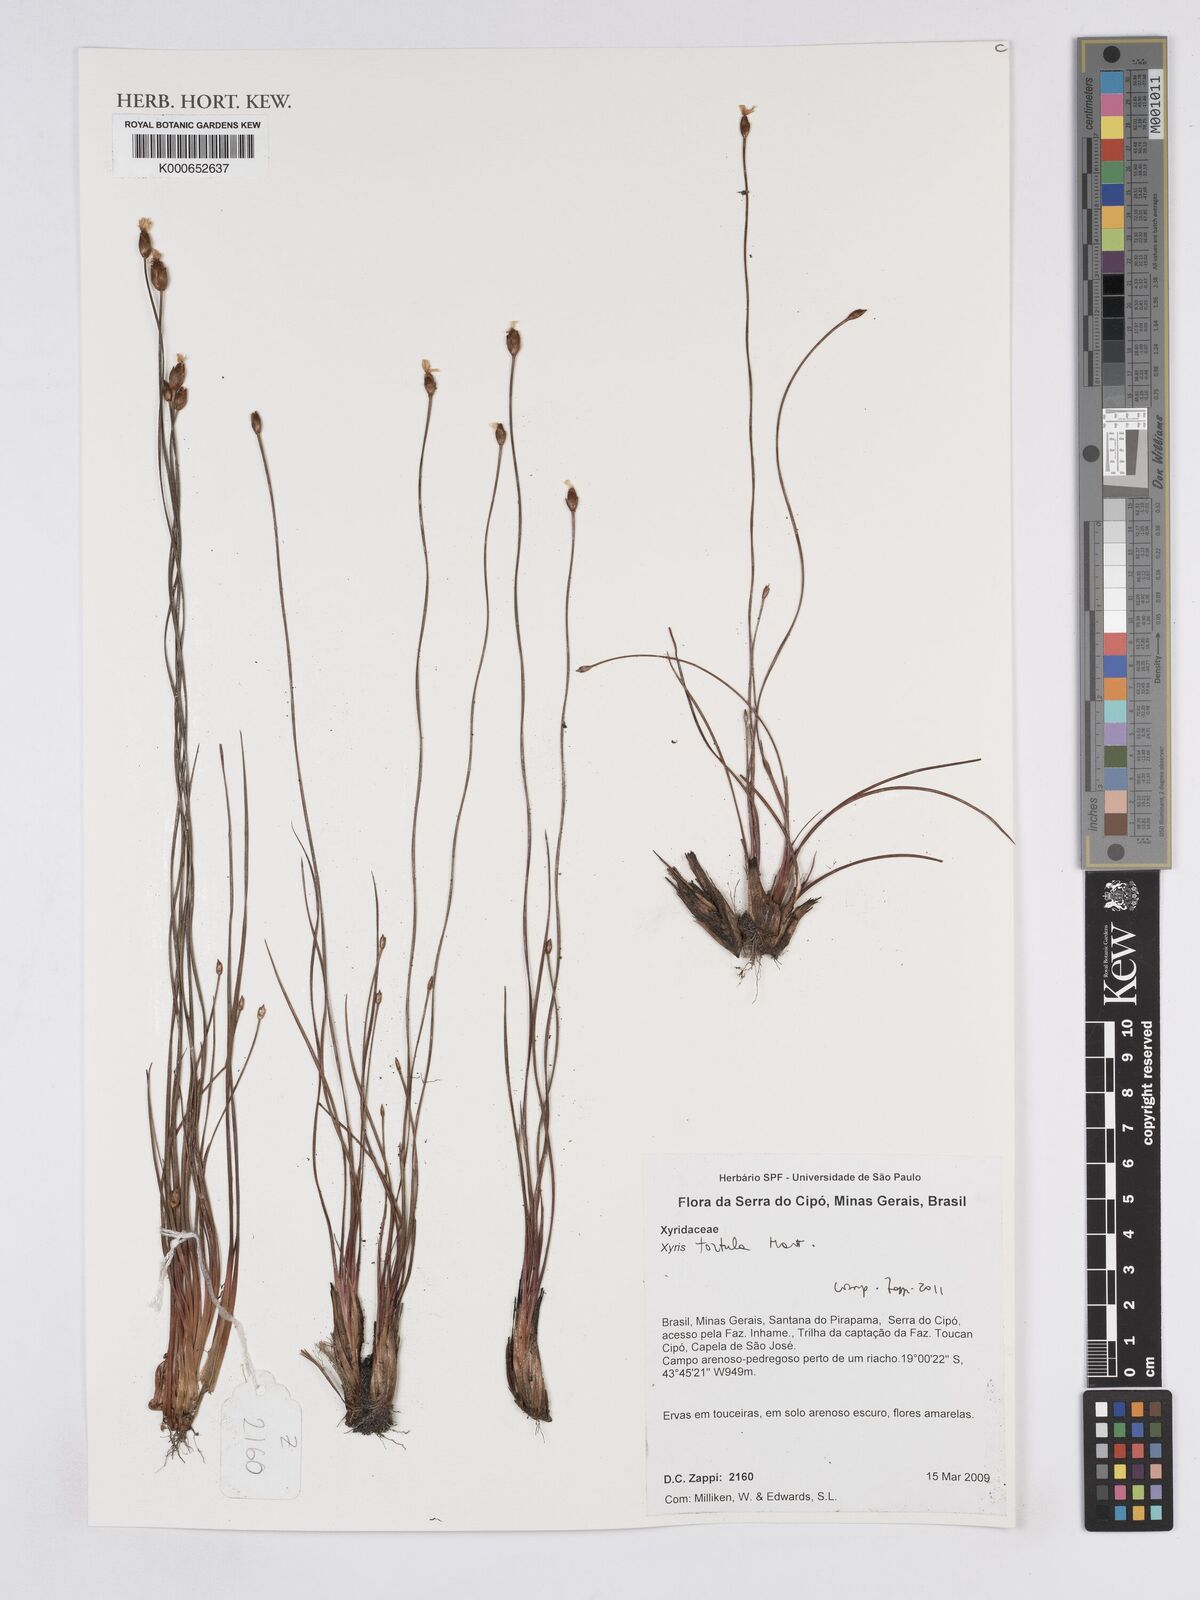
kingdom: Plantae
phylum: Tracheophyta
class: Liliopsida
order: Poales
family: Xyridaceae
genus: Xyris
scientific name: Xyris tortula
